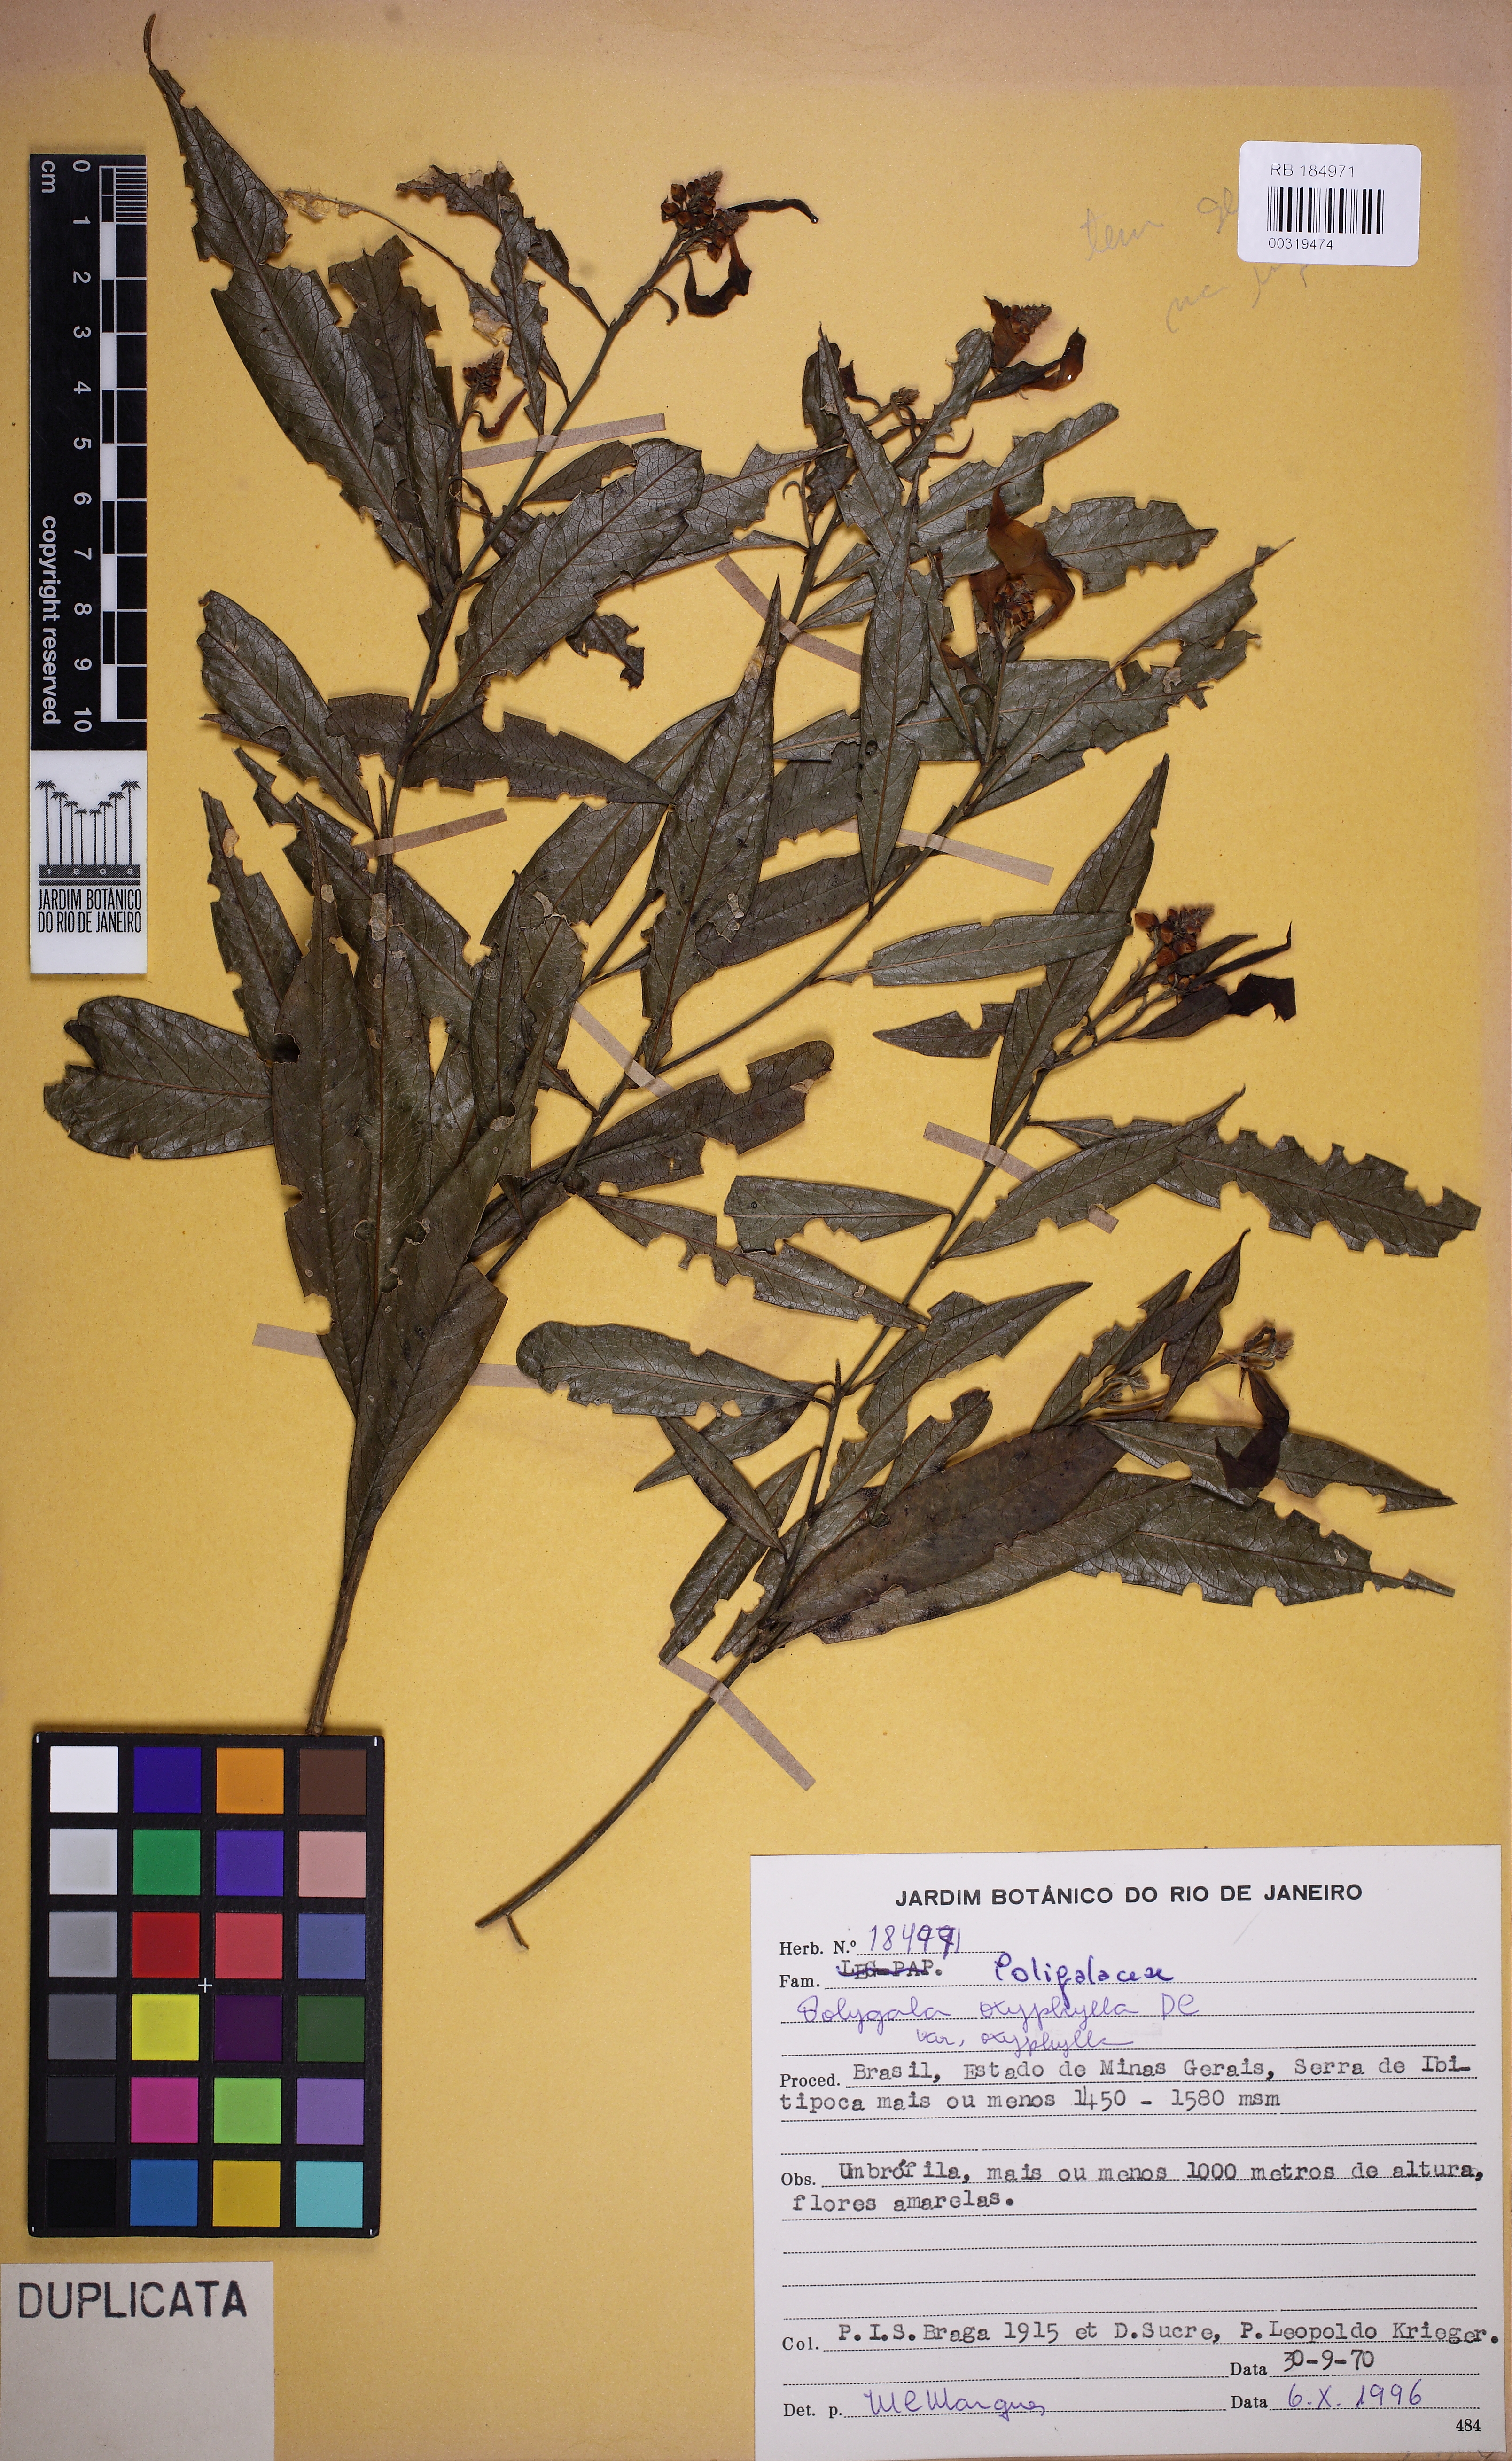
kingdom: Plantae
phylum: Tracheophyta
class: Magnoliopsida
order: Fabales
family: Polygalaceae
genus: Caamembeca
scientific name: Caamembeca
